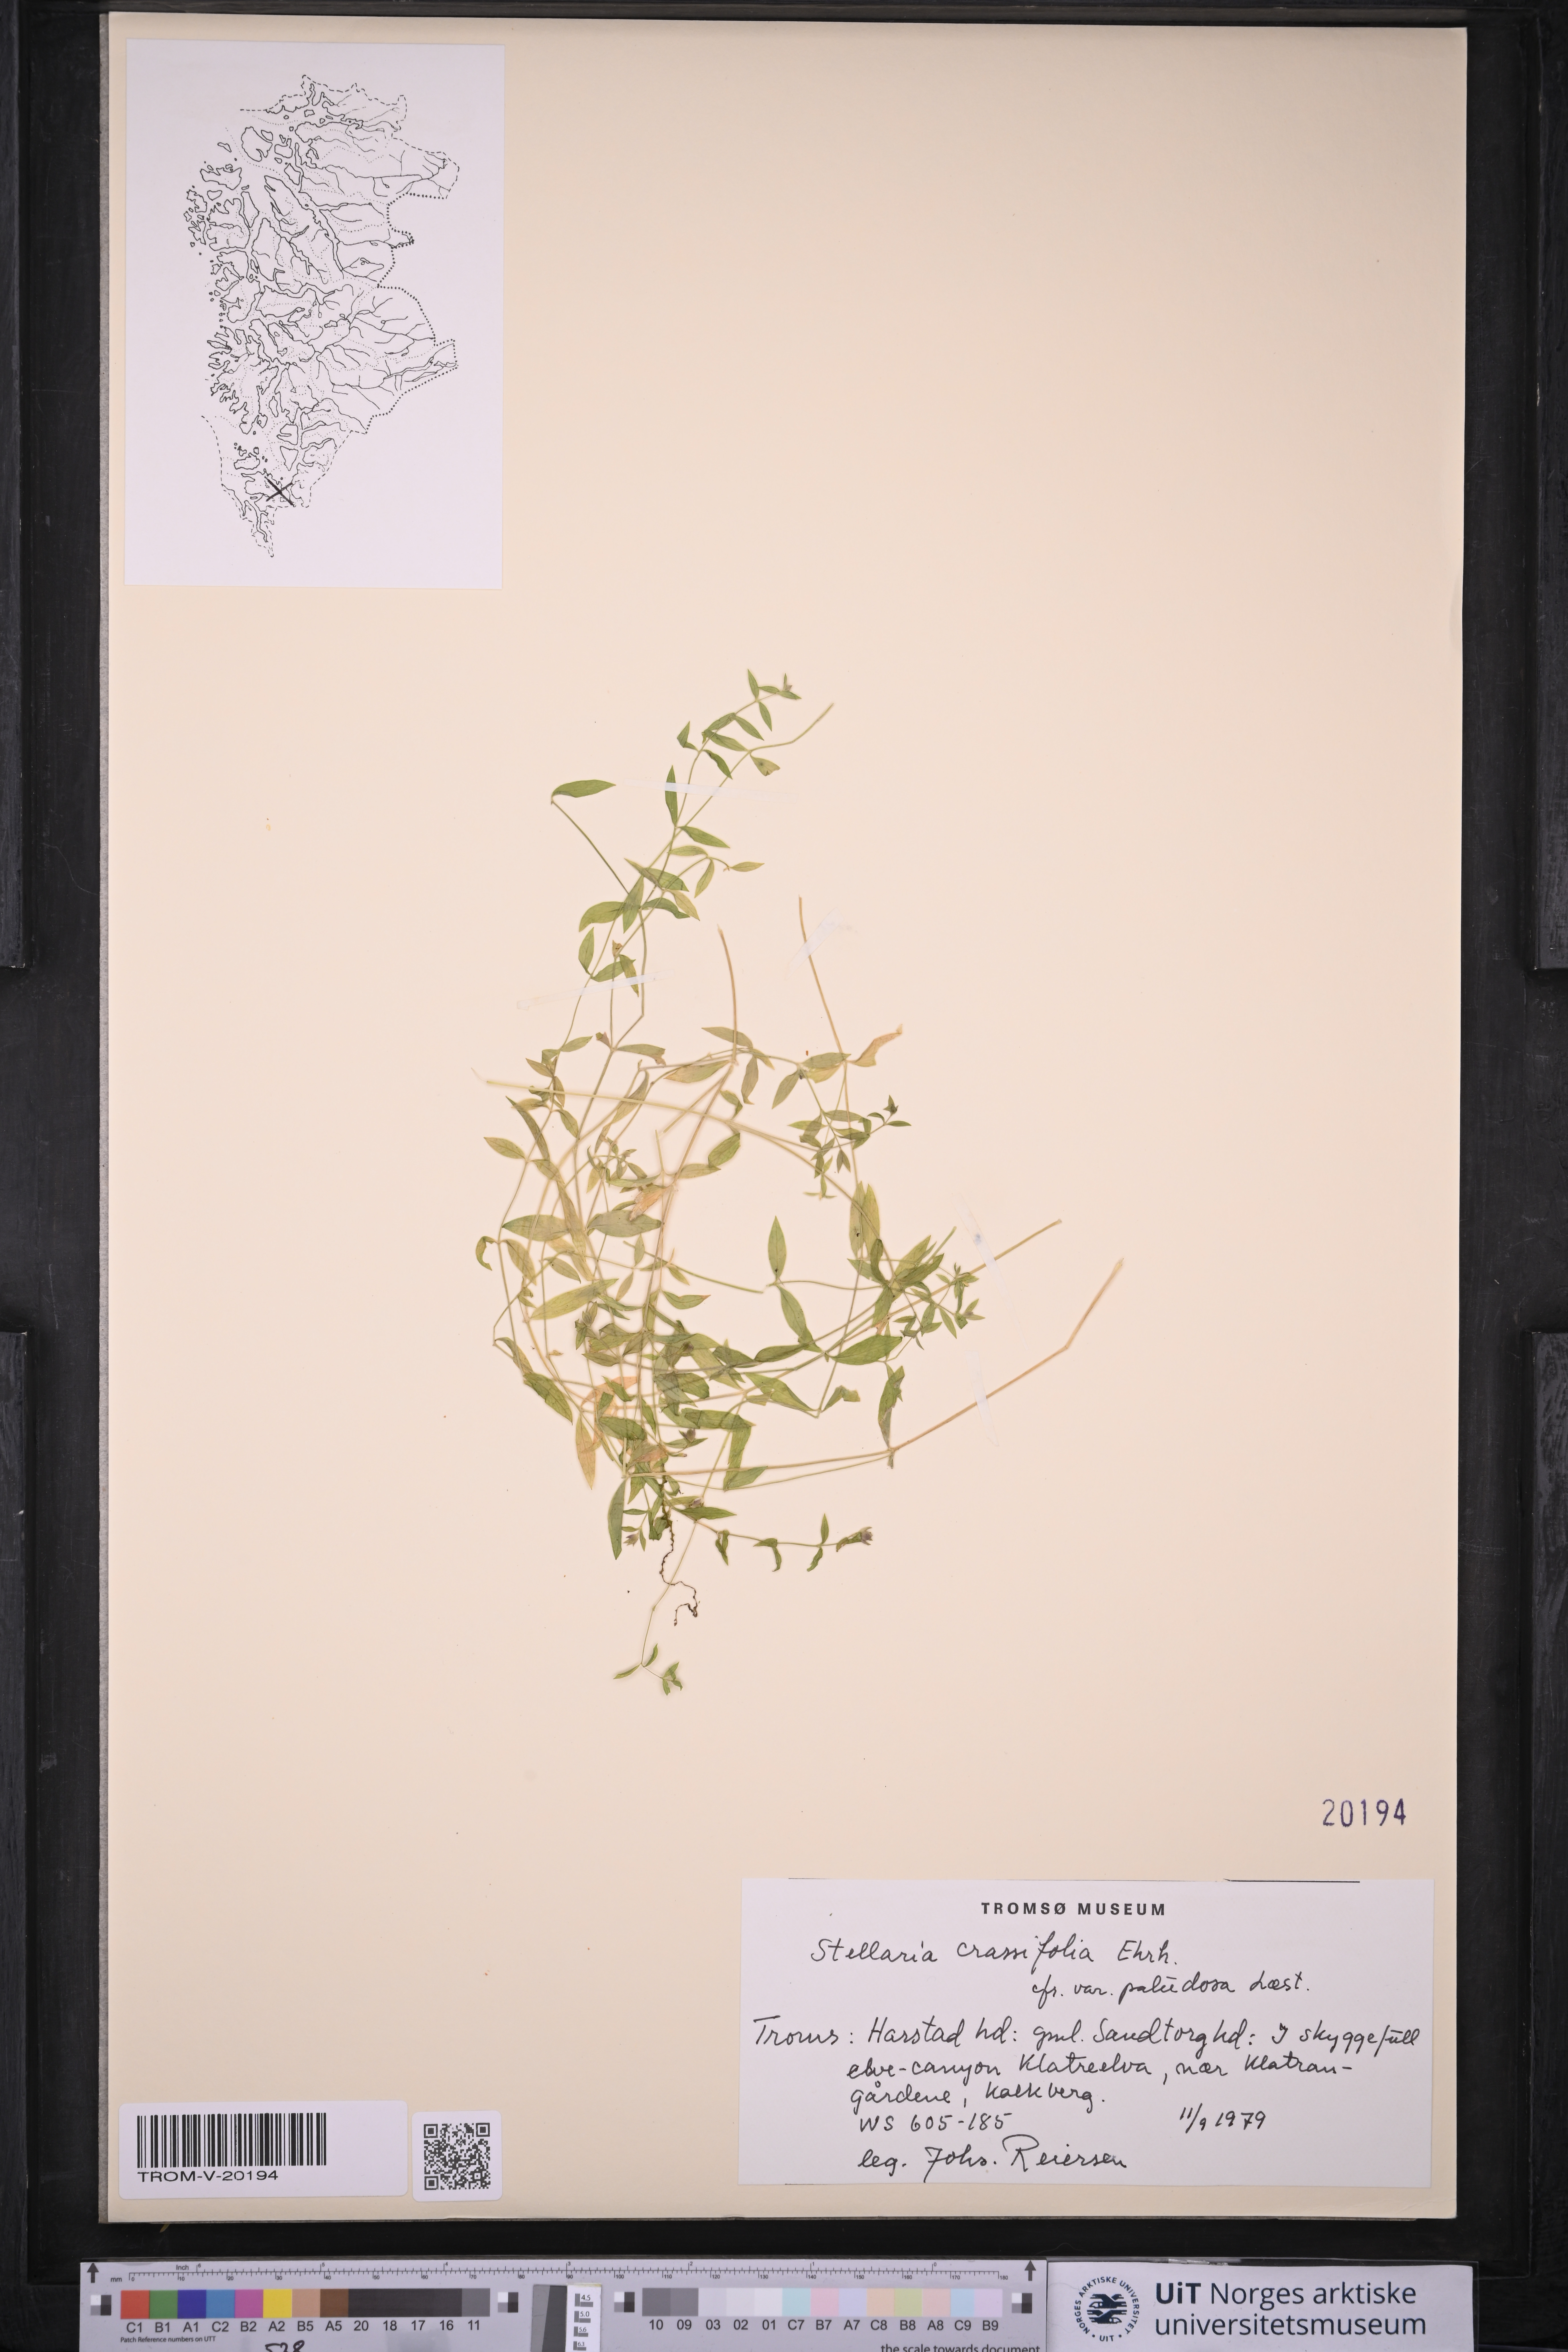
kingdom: Plantae
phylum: Tracheophyta
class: Magnoliopsida
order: Caryophyllales
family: Caryophyllaceae
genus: Stellaria
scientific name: Stellaria crassifolia
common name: Fleshy starwort
